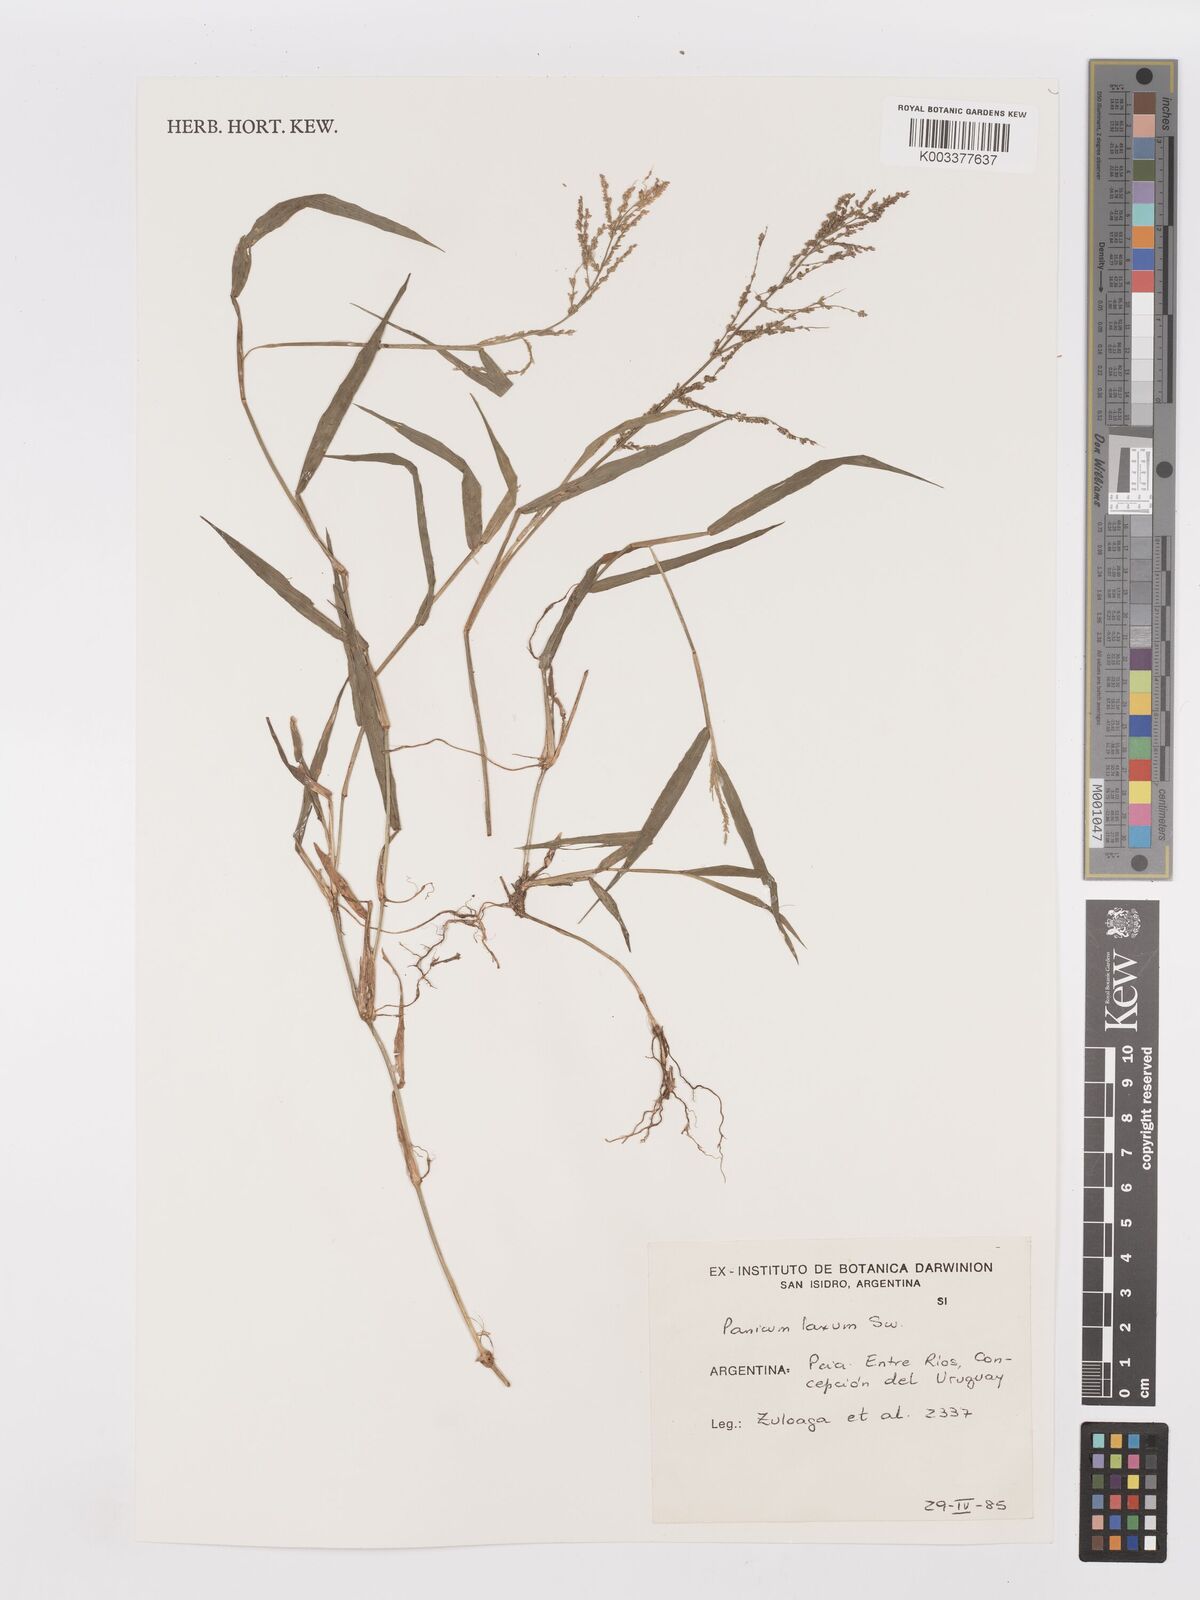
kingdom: Plantae
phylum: Tracheophyta
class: Liliopsida
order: Poales
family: Poaceae
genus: Steinchisma
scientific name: Steinchisma laxum
